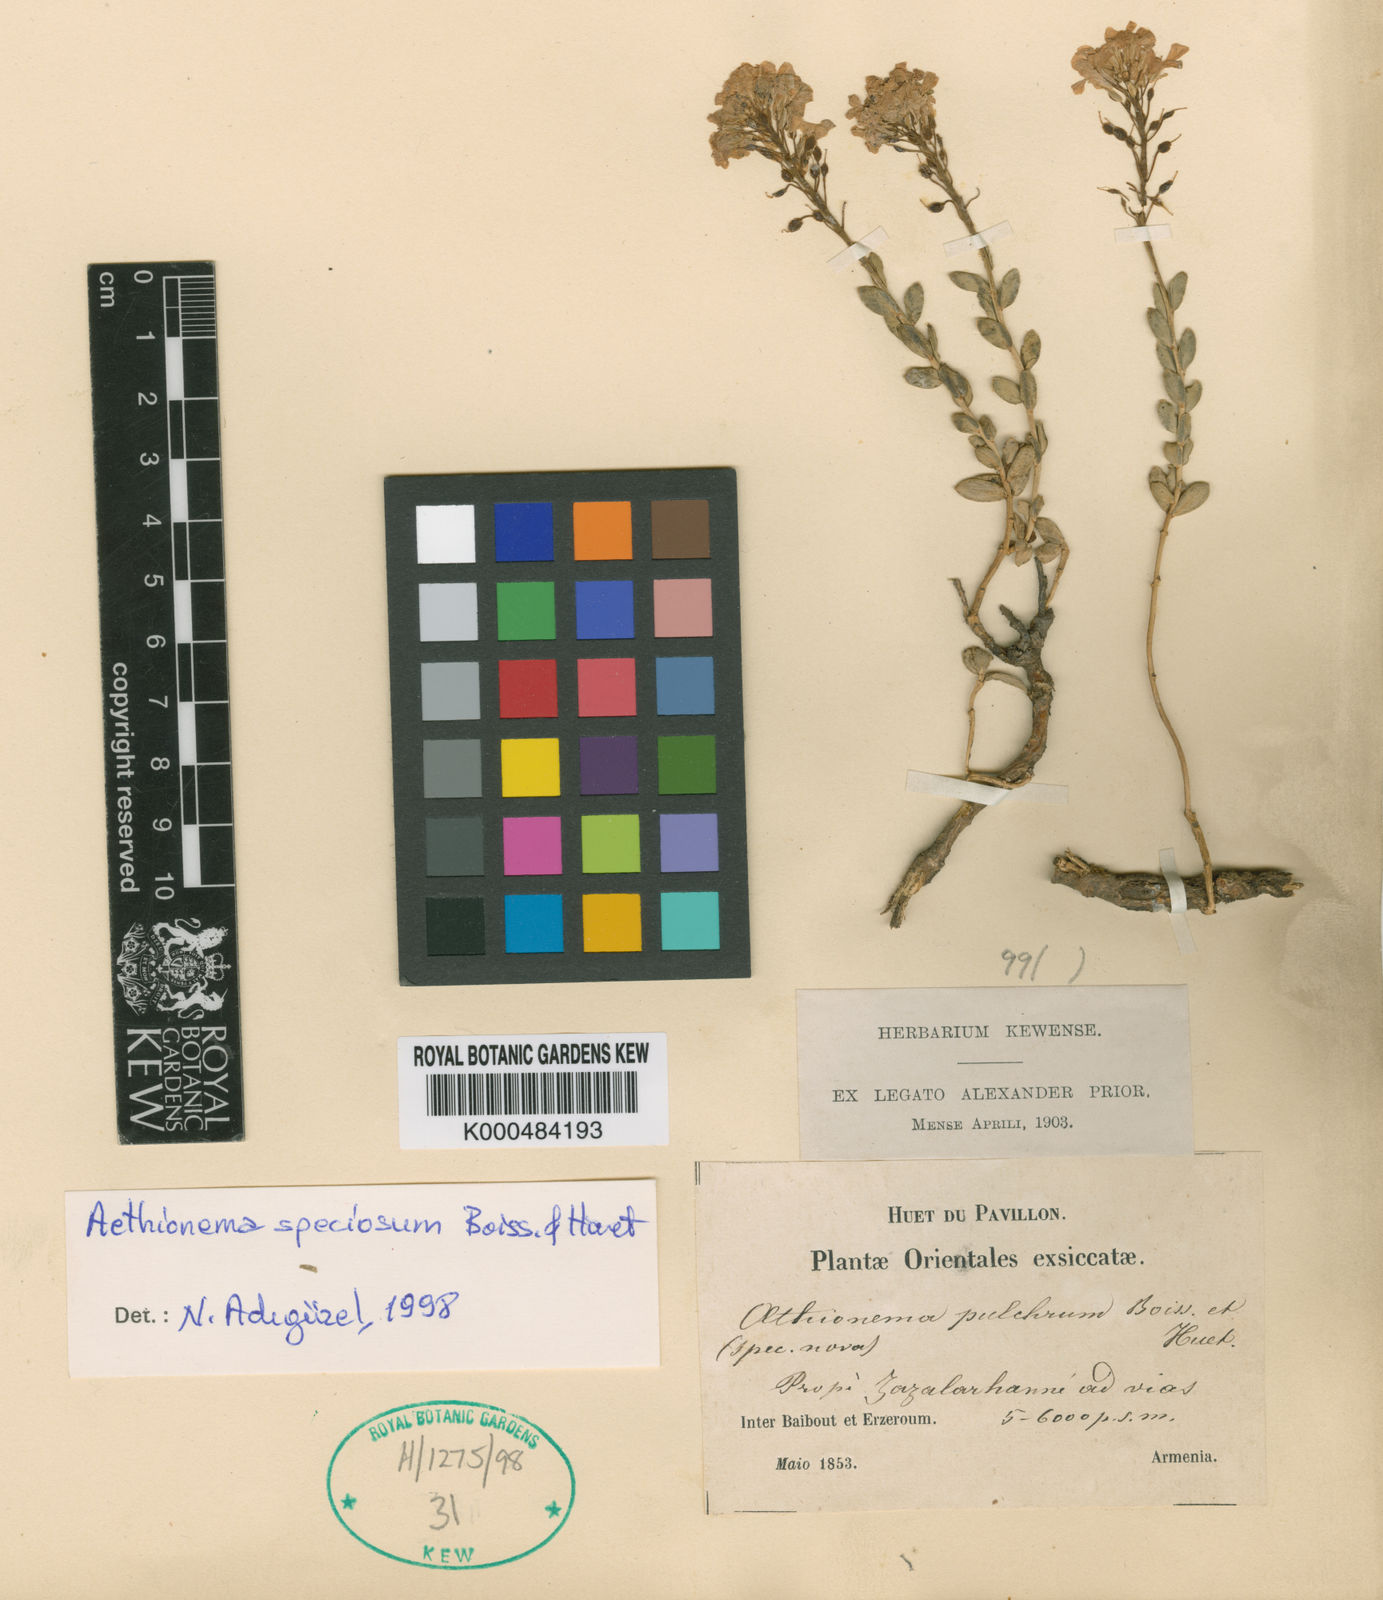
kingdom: Plantae
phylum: Tracheophyta
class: Magnoliopsida
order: Brassicales
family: Brassicaceae
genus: Aethionema
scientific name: Aethionema speciosum
